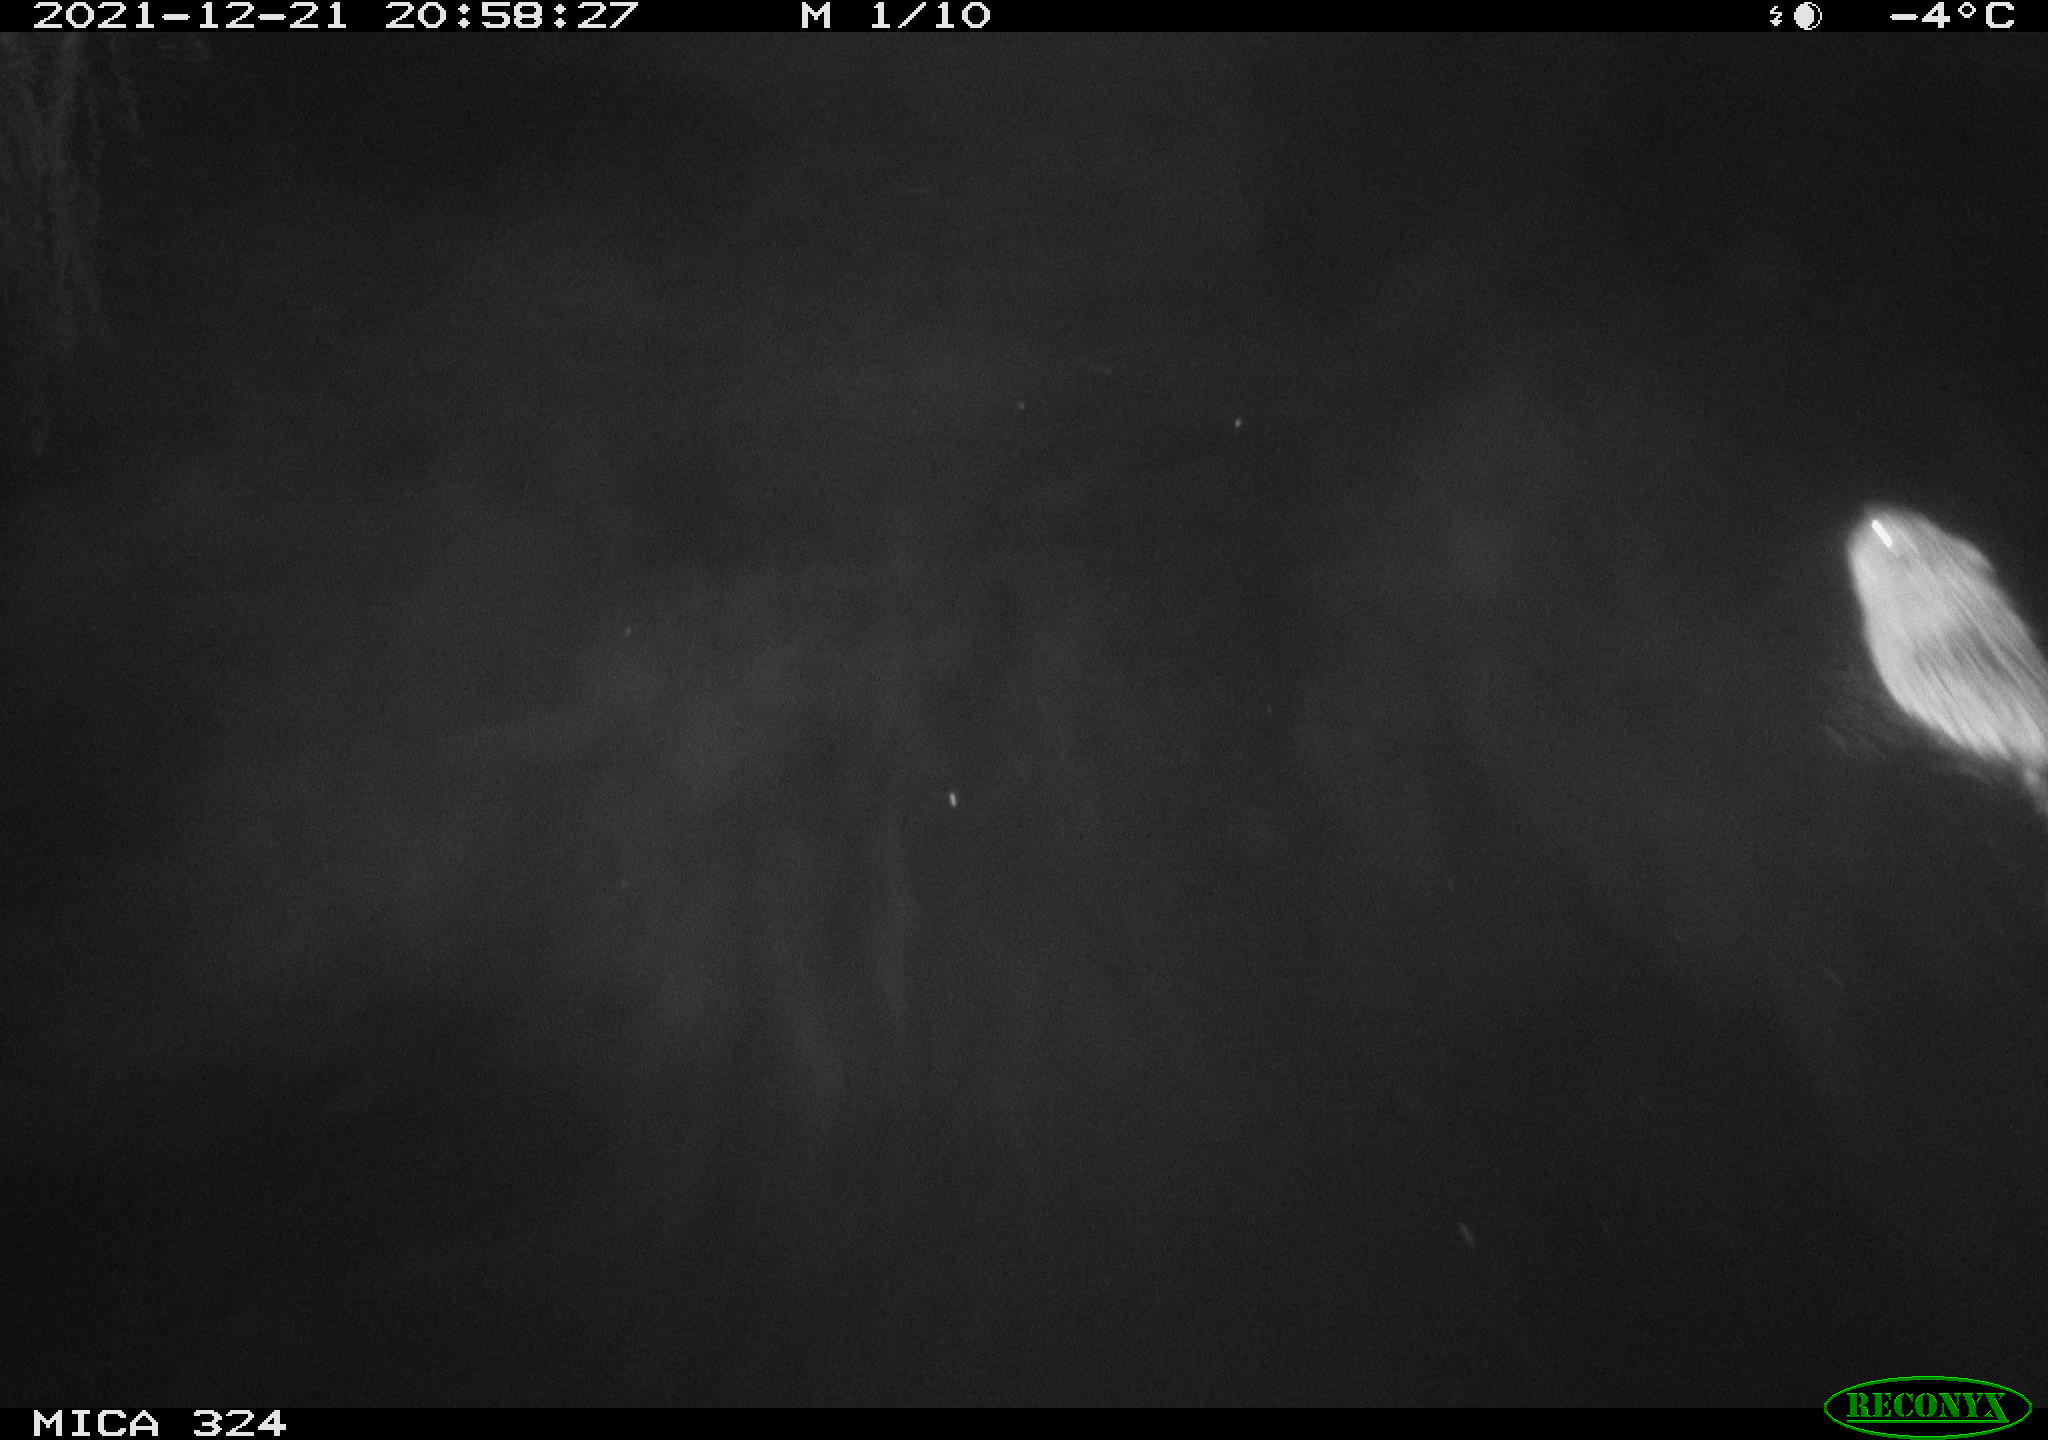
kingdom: Animalia
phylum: Chordata
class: Mammalia
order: Rodentia
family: Cricetidae
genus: Ondatra
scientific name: Ondatra zibethicus
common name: Muskrat
